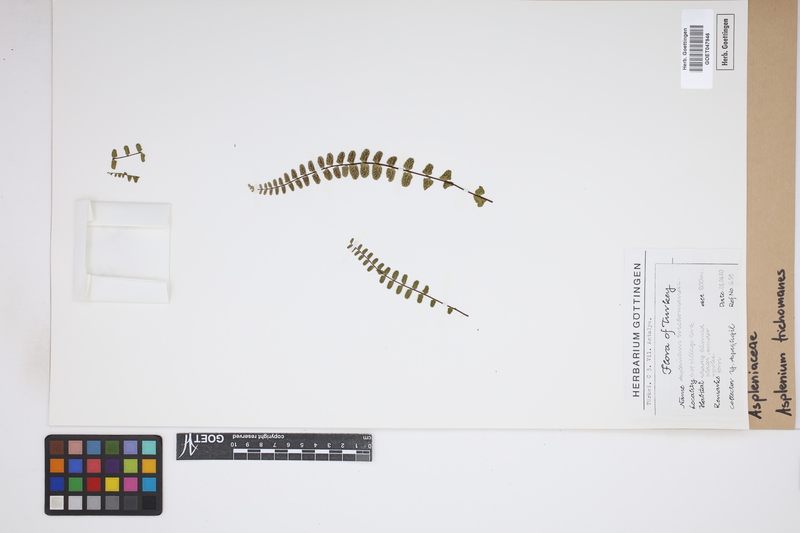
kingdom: Plantae
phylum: Tracheophyta
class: Polypodiopsida
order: Polypodiales
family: Aspleniaceae
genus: Asplenium
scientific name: Asplenium trichomanes
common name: Maidenhair spleenwort
